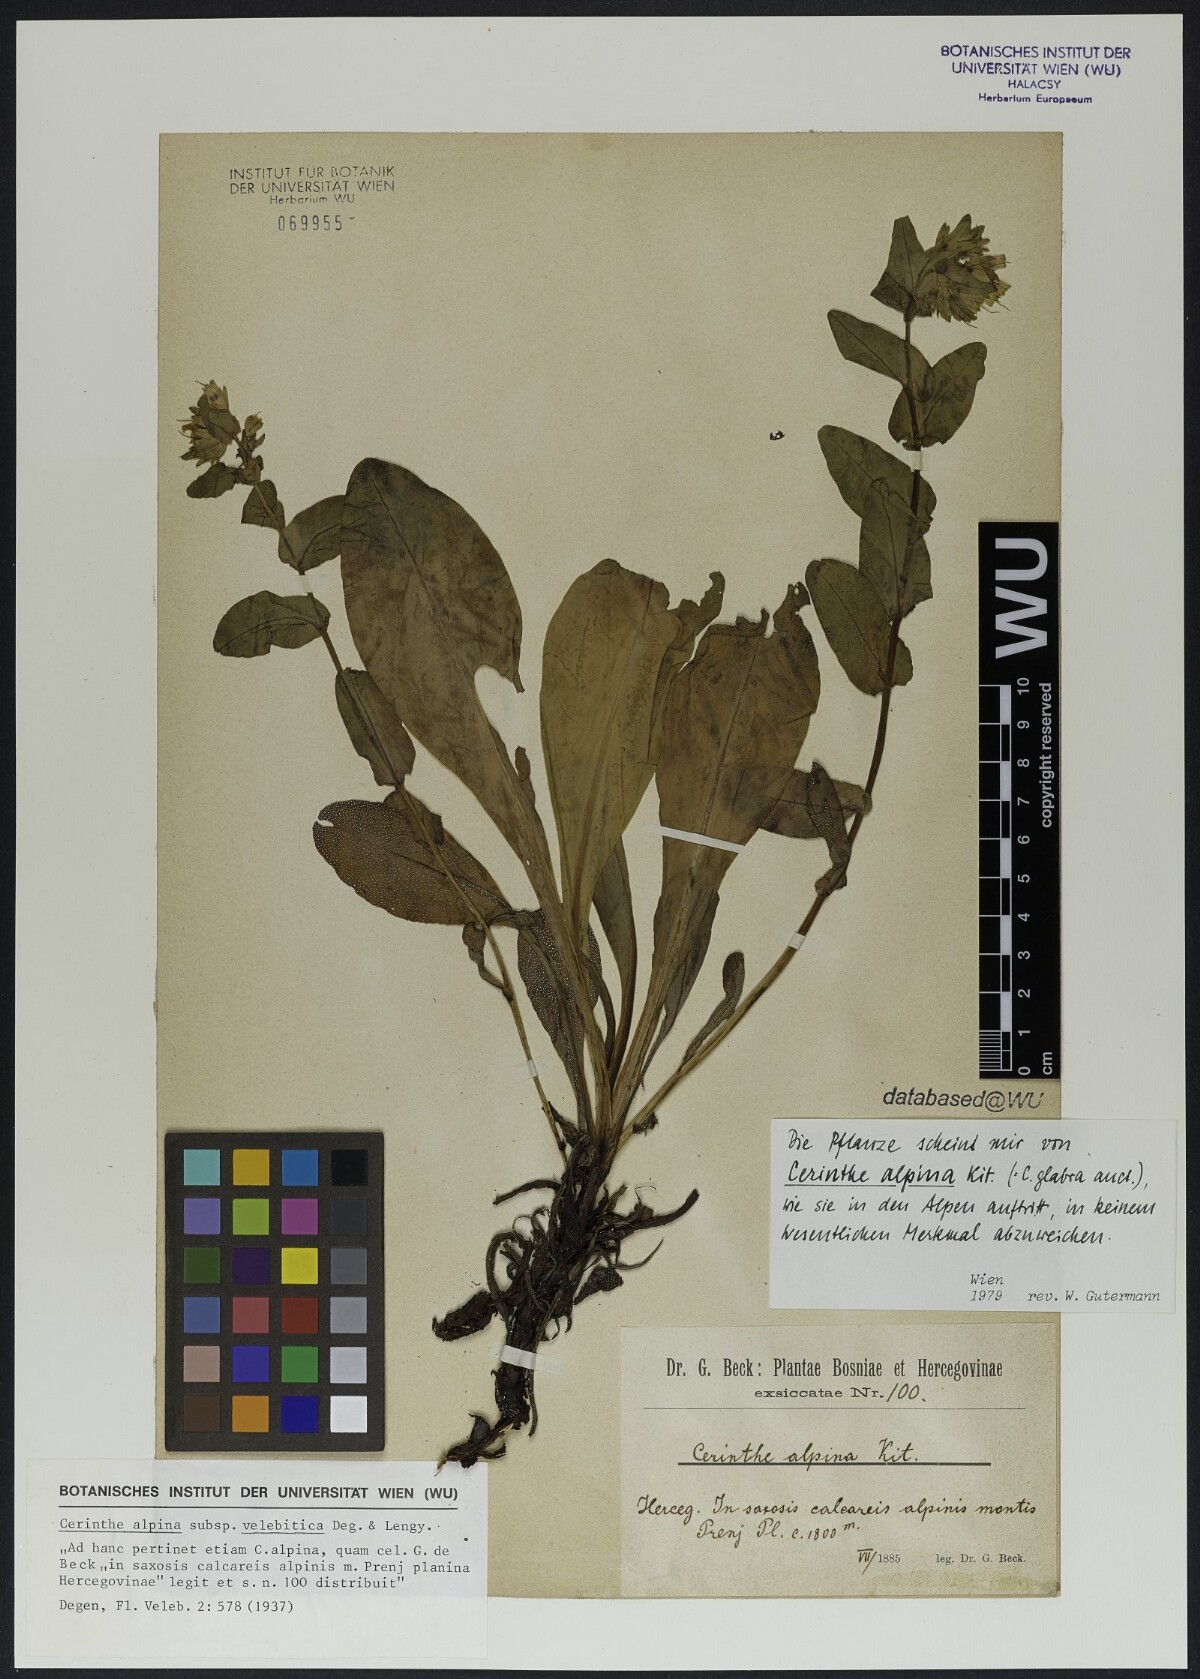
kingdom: Plantae
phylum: Tracheophyta
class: Magnoliopsida
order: Boraginales
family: Boraginaceae
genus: Cerinthe
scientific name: Cerinthe glabra
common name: Smooth honeywort
